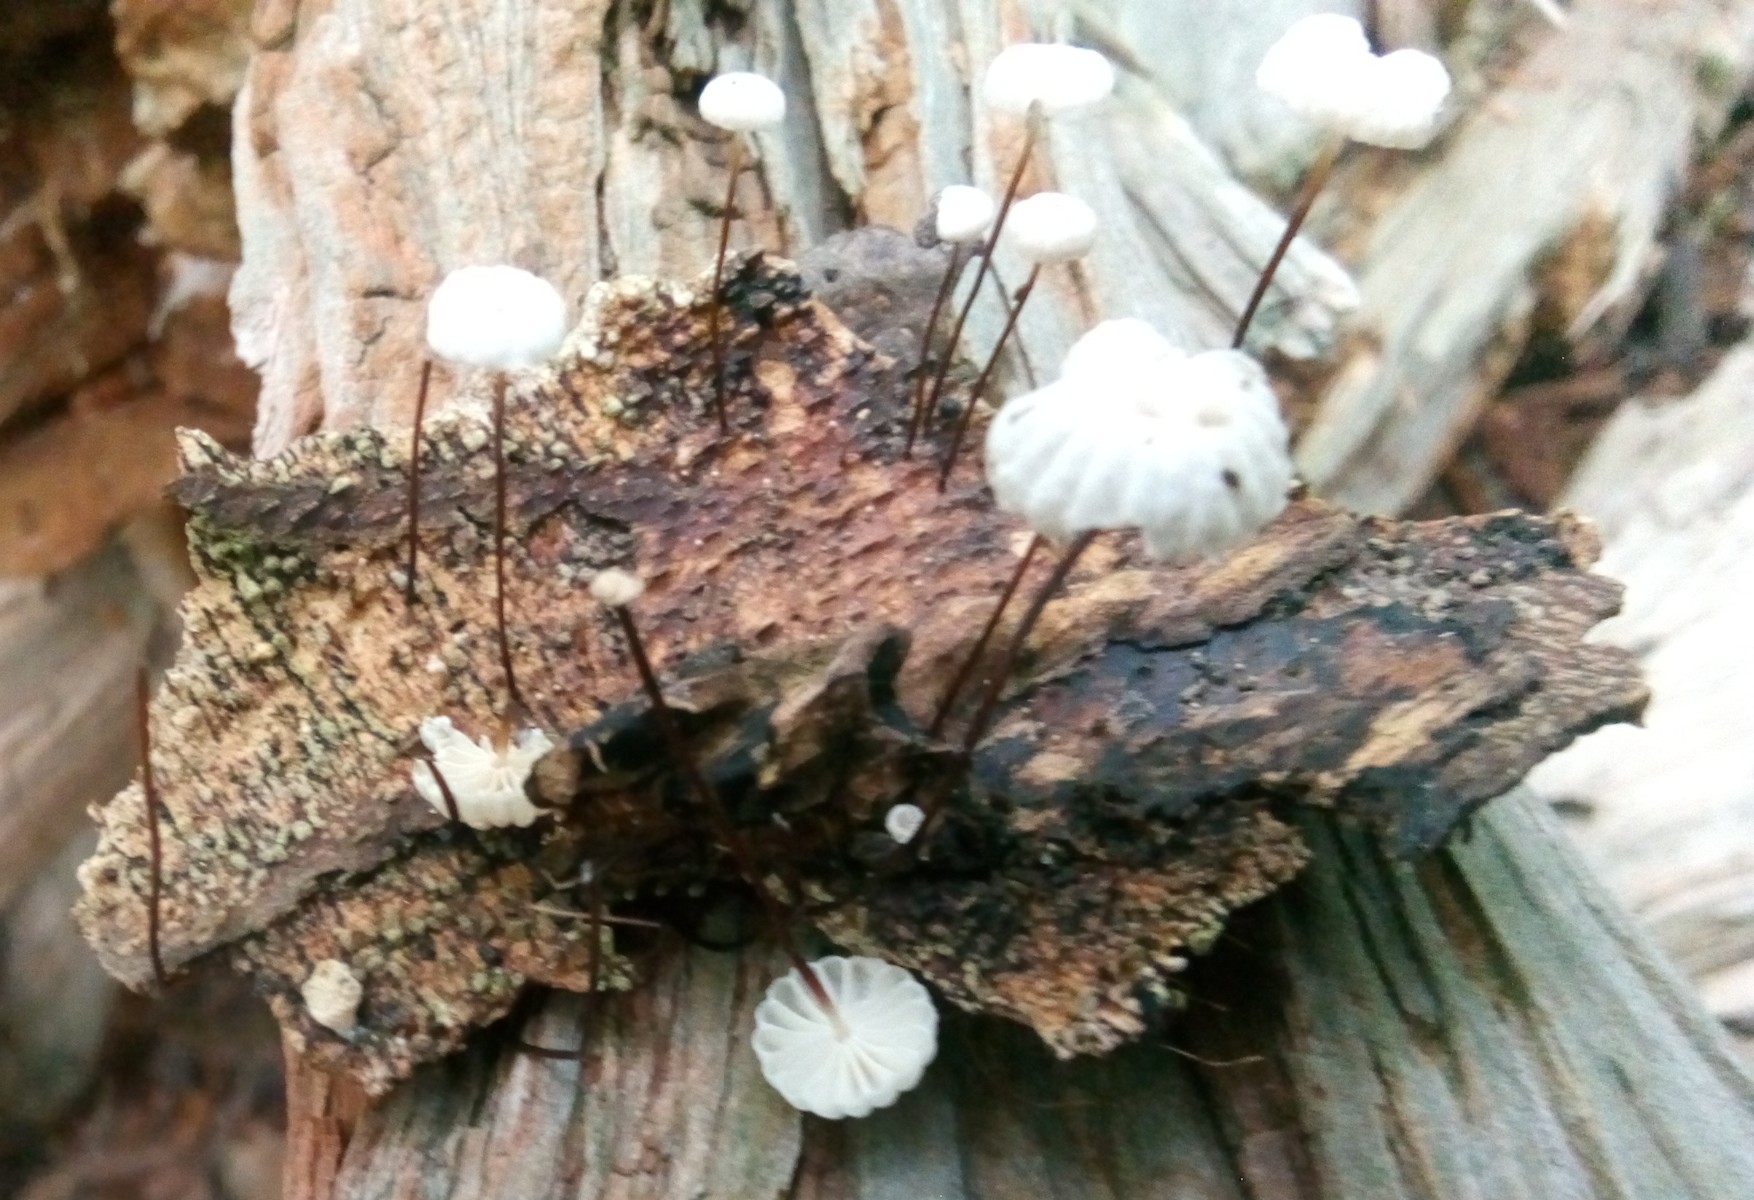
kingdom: Fungi
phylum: Basidiomycota
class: Agaricomycetes
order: Agaricales
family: Marasmiaceae
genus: Marasmius
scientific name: Marasmius rotula
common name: hjul-bruskhat
